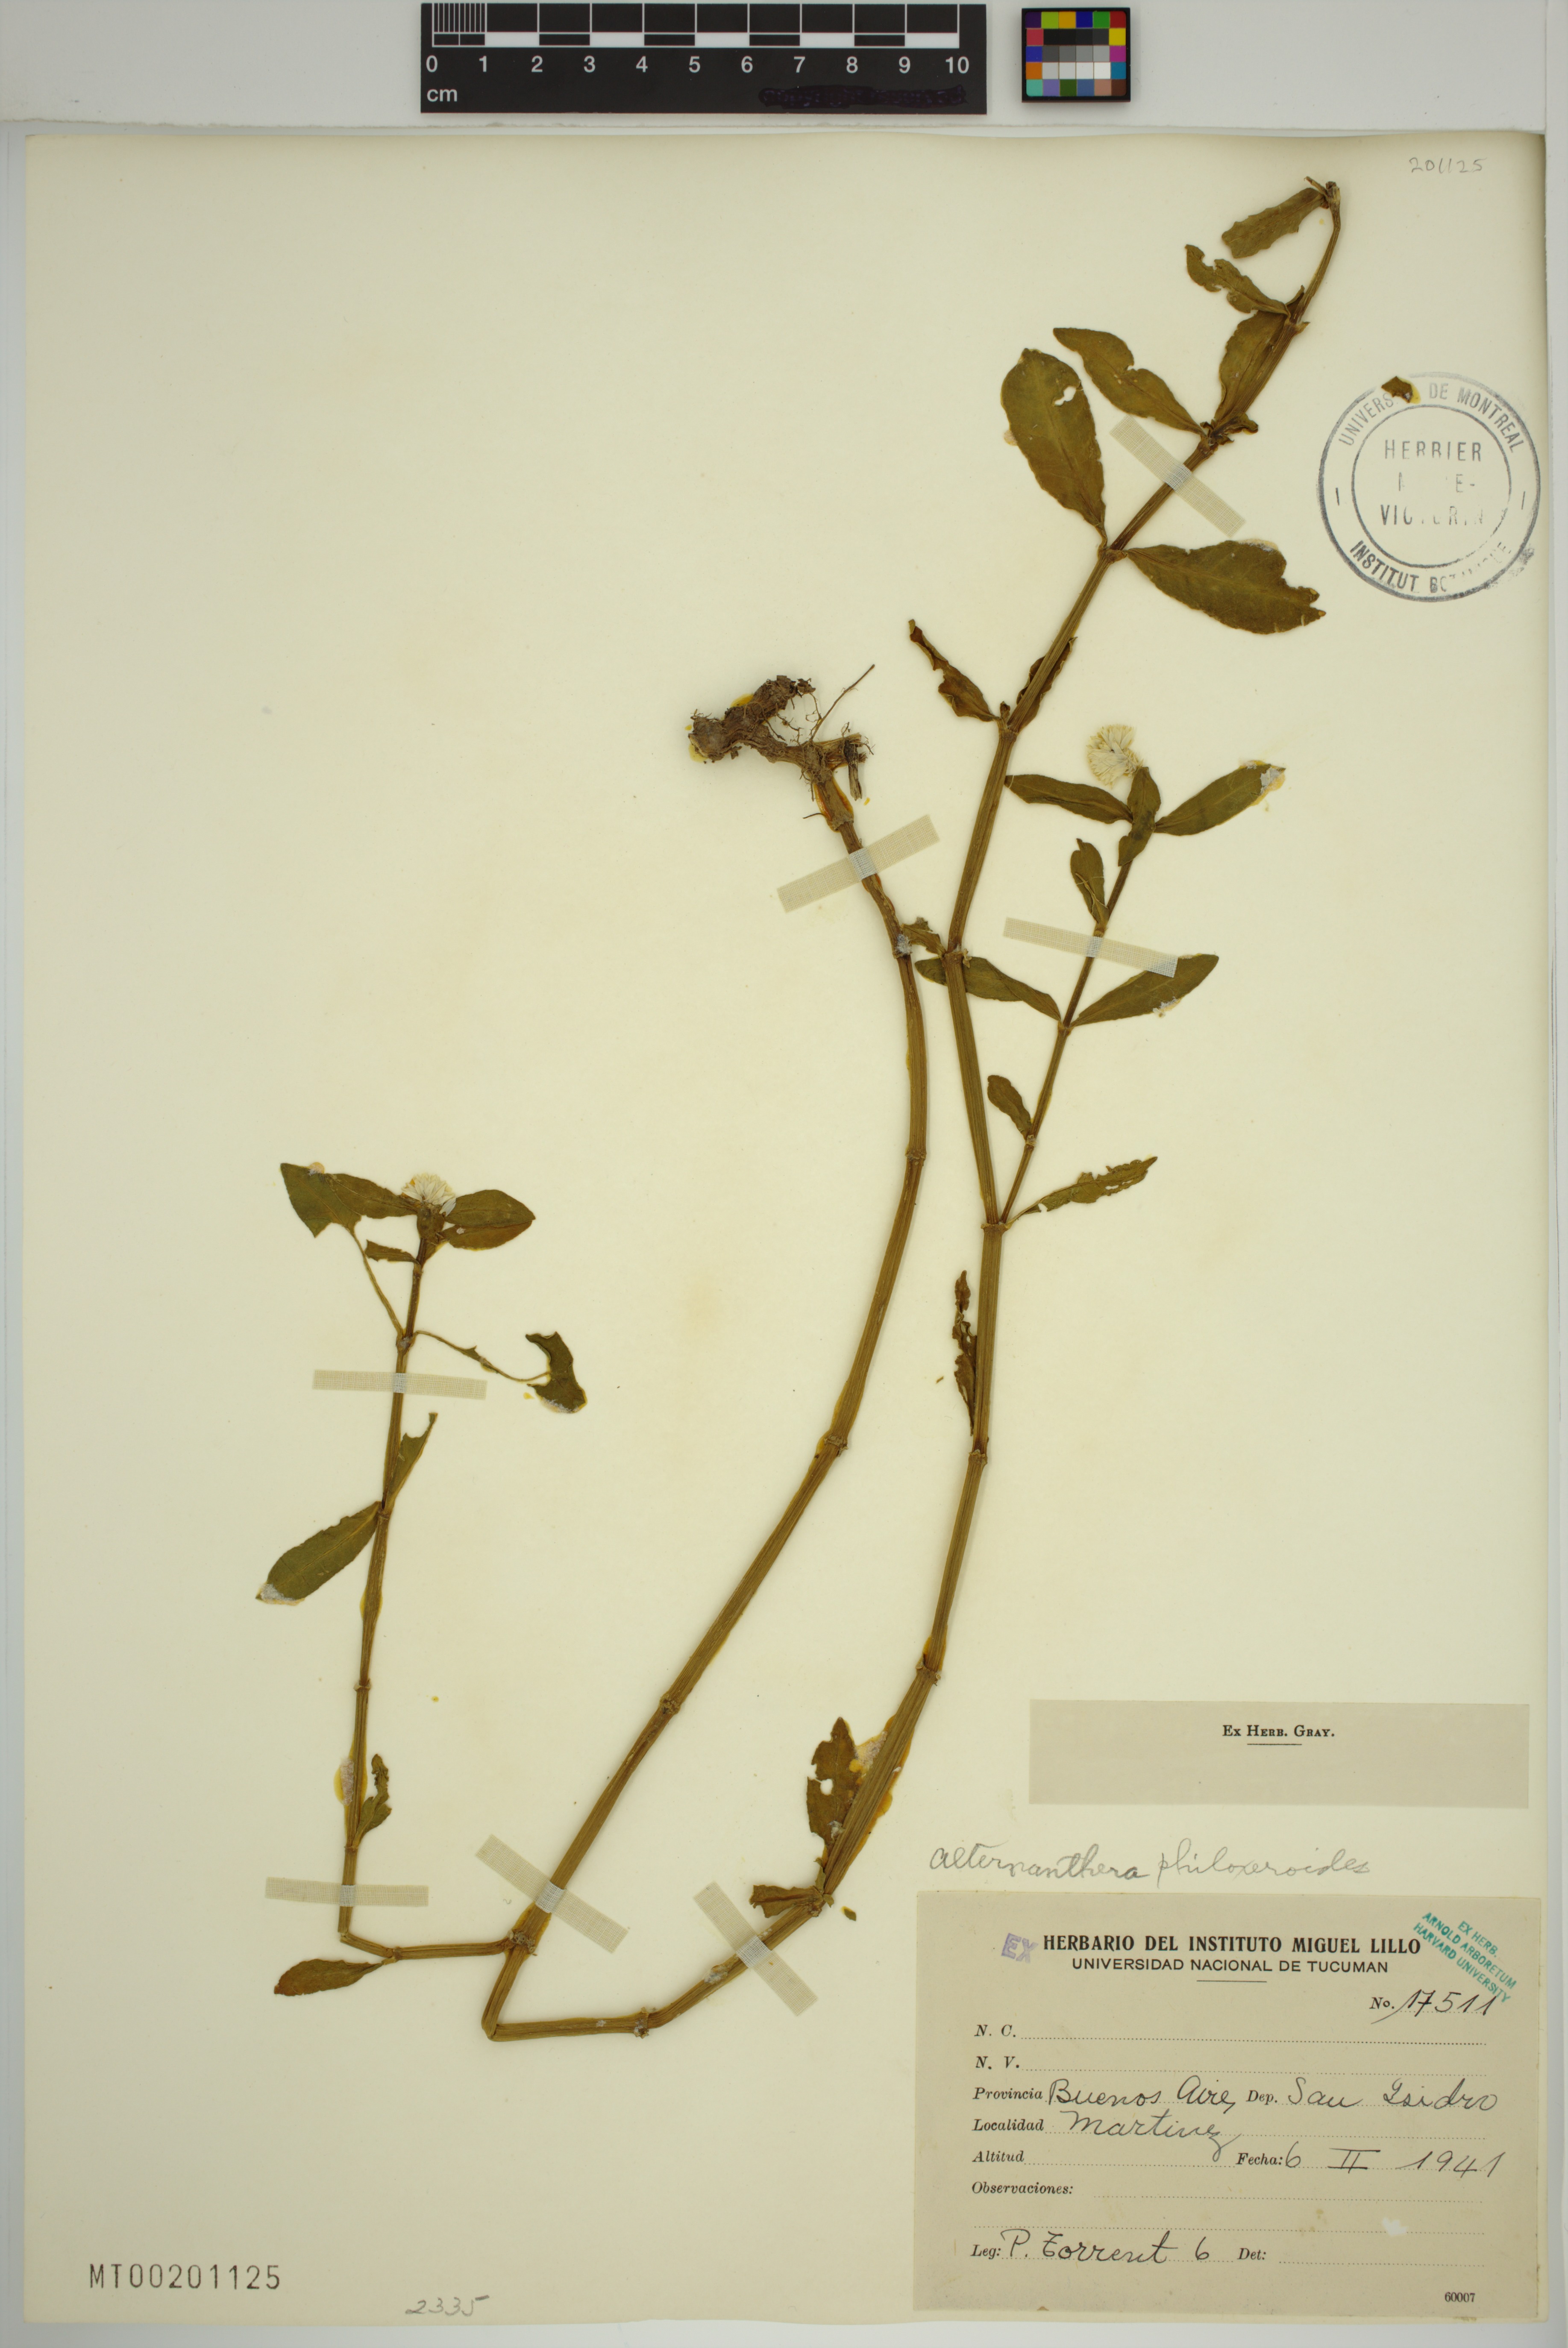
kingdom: Plantae
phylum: Tracheophyta
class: Magnoliopsida
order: Caryophyllales
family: Amaranthaceae
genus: Alternanthera
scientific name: Alternanthera philoxeroides
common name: Alligatorweed
